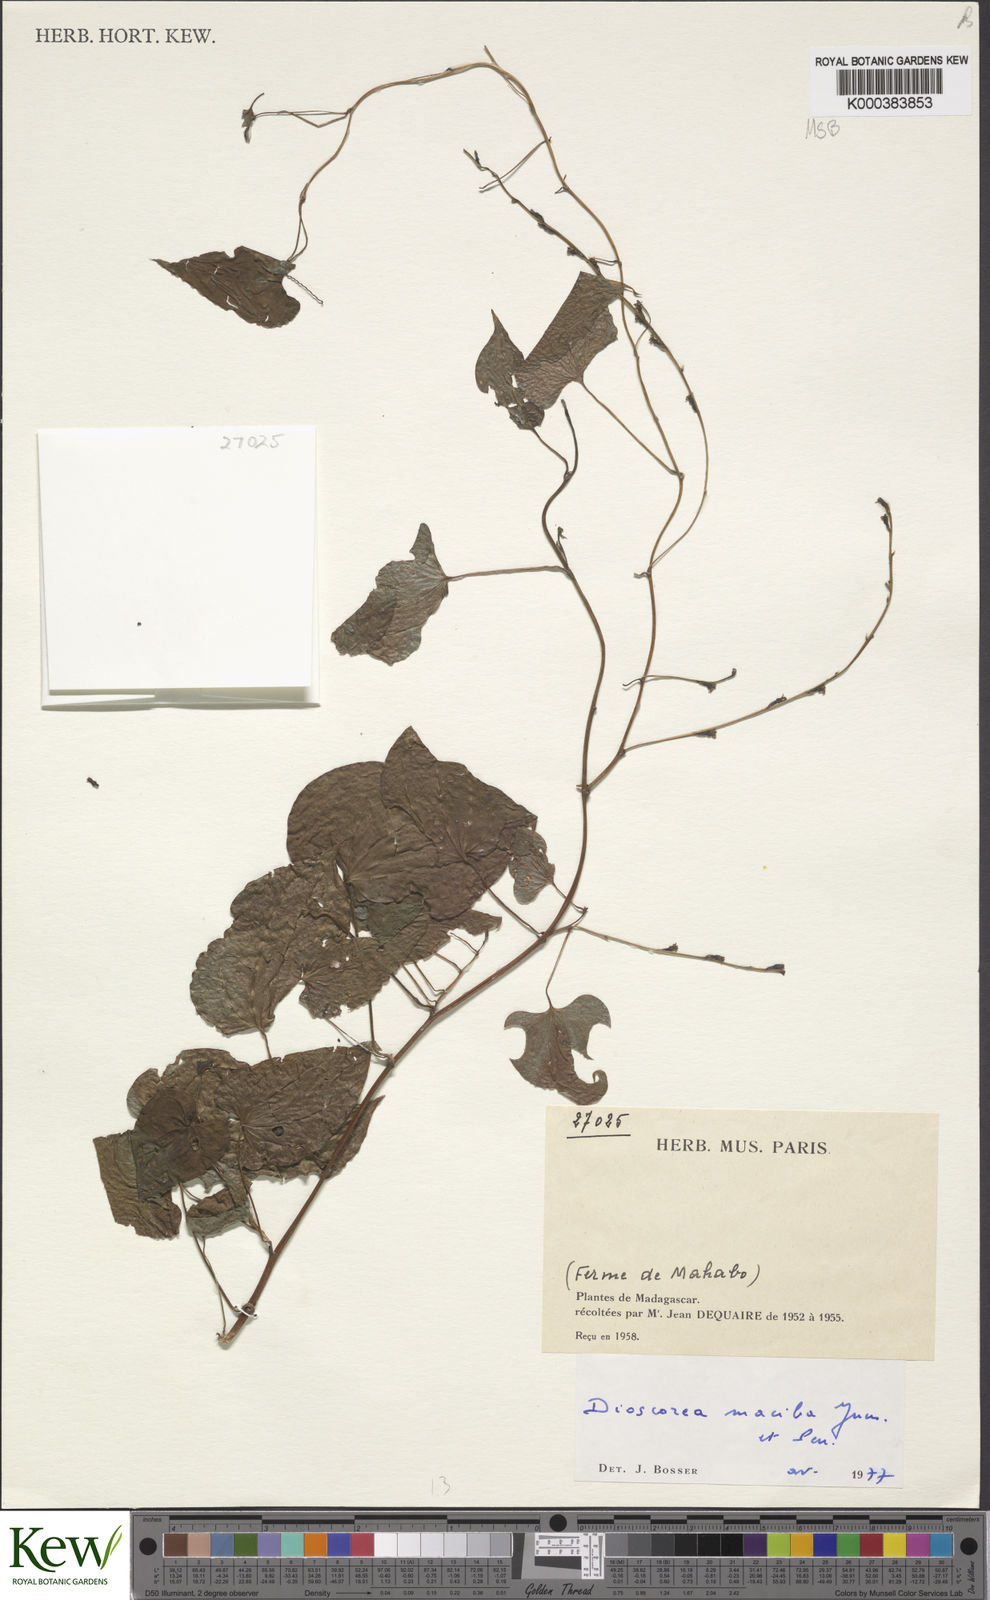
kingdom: Plantae
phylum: Tracheophyta
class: Liliopsida
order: Dioscoreales
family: Dioscoreaceae
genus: Dioscorea
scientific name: Dioscorea
